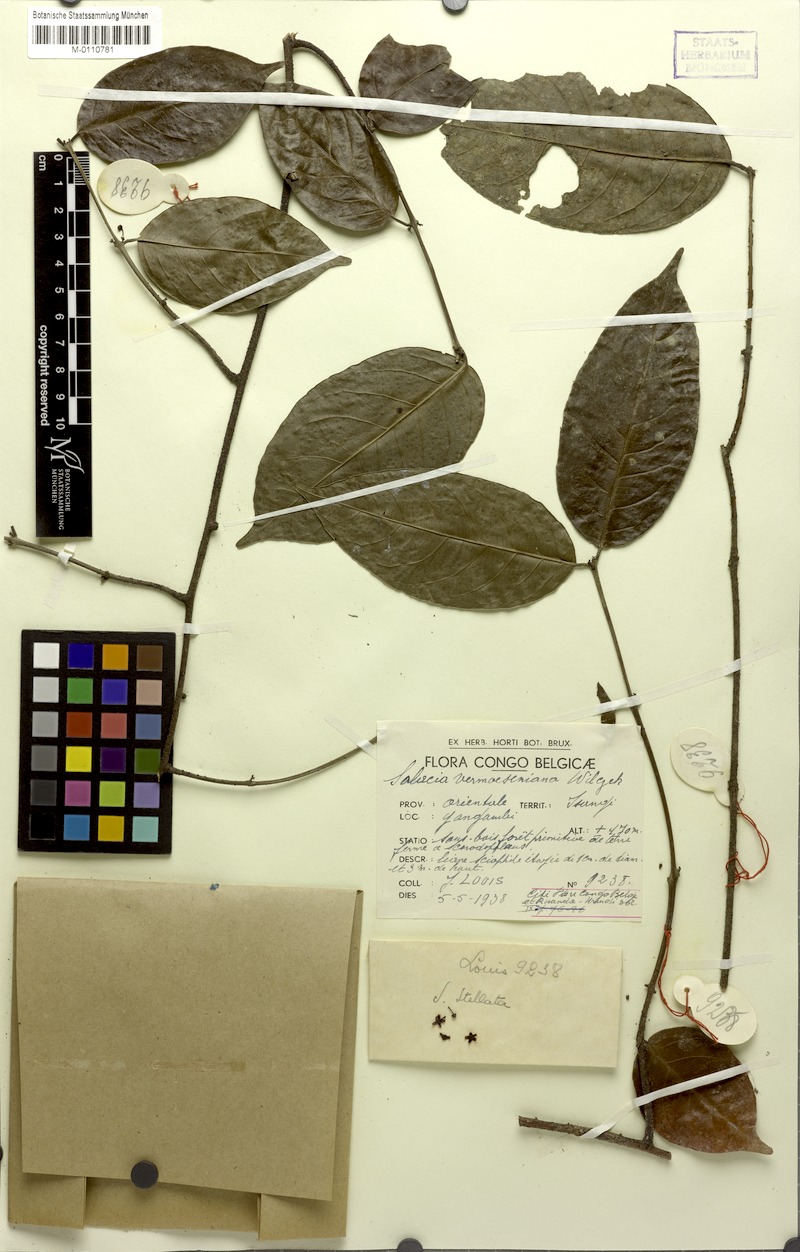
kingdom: Plantae
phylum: Tracheophyta
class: Magnoliopsida
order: Celastrales
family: Celastraceae
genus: Salacia
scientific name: Salacia whytei
